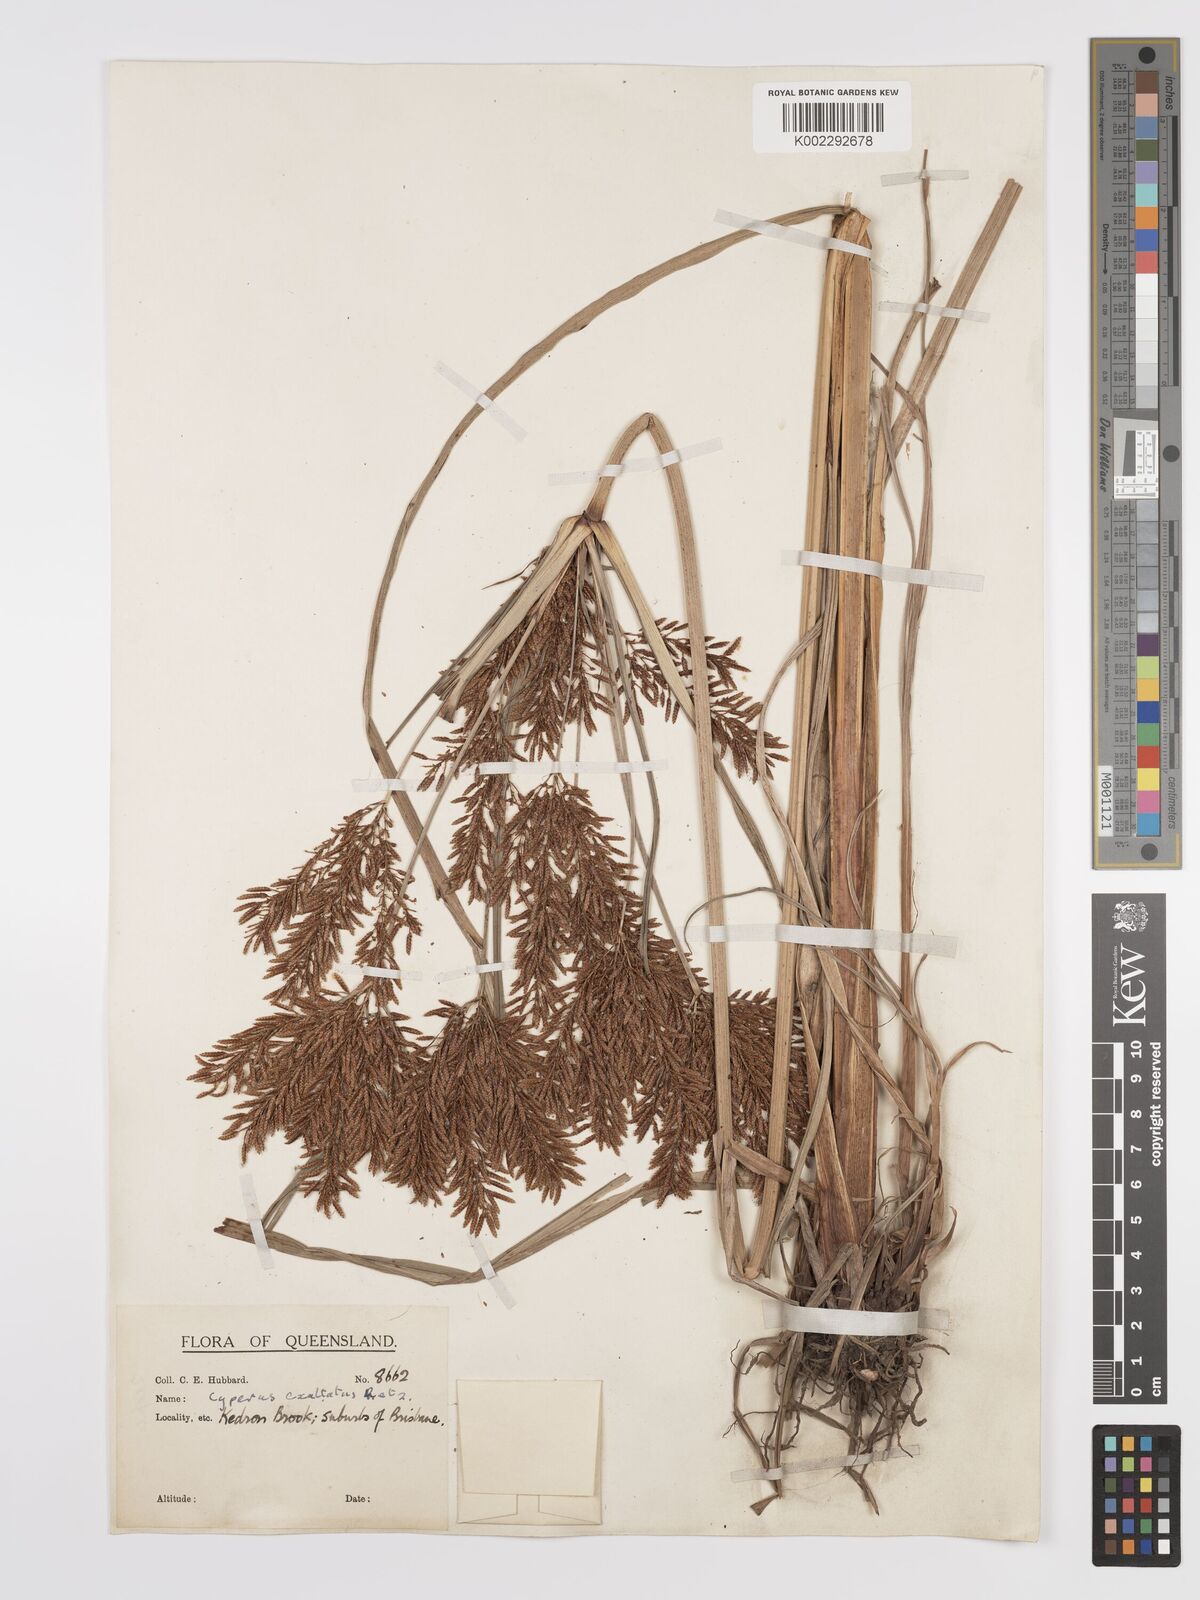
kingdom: Plantae
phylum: Tracheophyta
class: Liliopsida
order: Poales
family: Cyperaceae
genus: Cyperus
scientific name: Cyperus exaltatus
